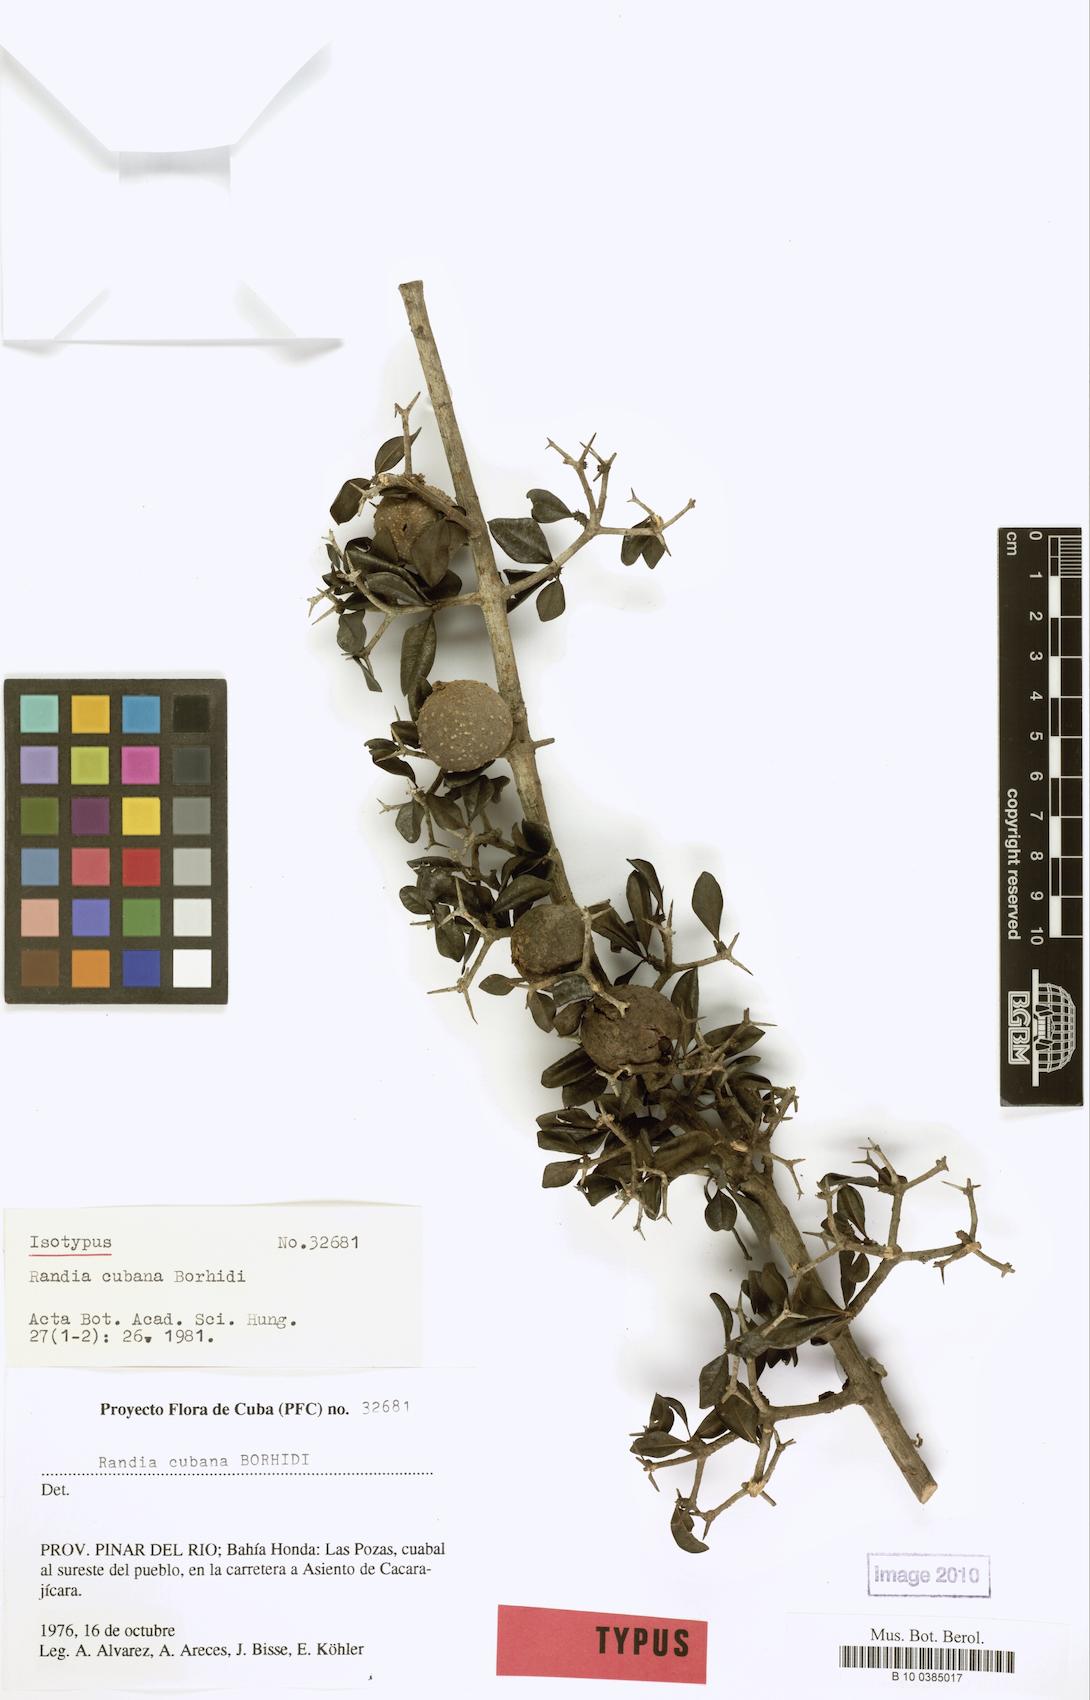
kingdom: Plantae
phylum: Tracheophyta
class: Magnoliopsida
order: Gentianales
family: Rubiaceae
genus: Randia
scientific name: Randia cubana
